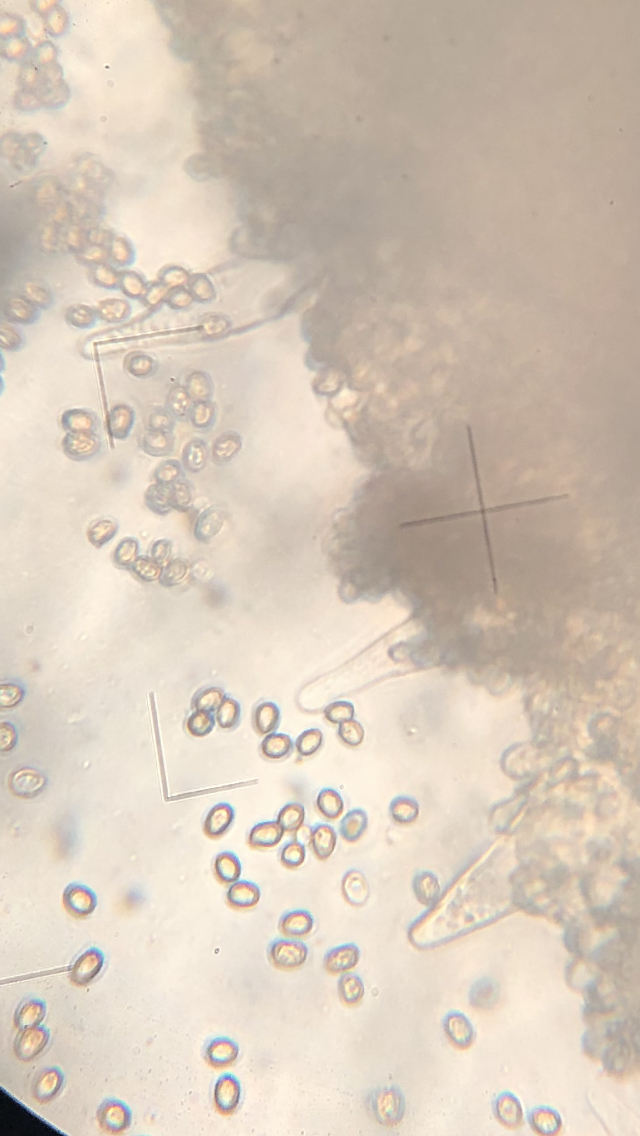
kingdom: Fungi
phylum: Basidiomycota
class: Agaricomycetes
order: Agaricales
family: Pluteaceae
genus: Pluteus
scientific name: Pluteus
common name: pudret skærmhat
